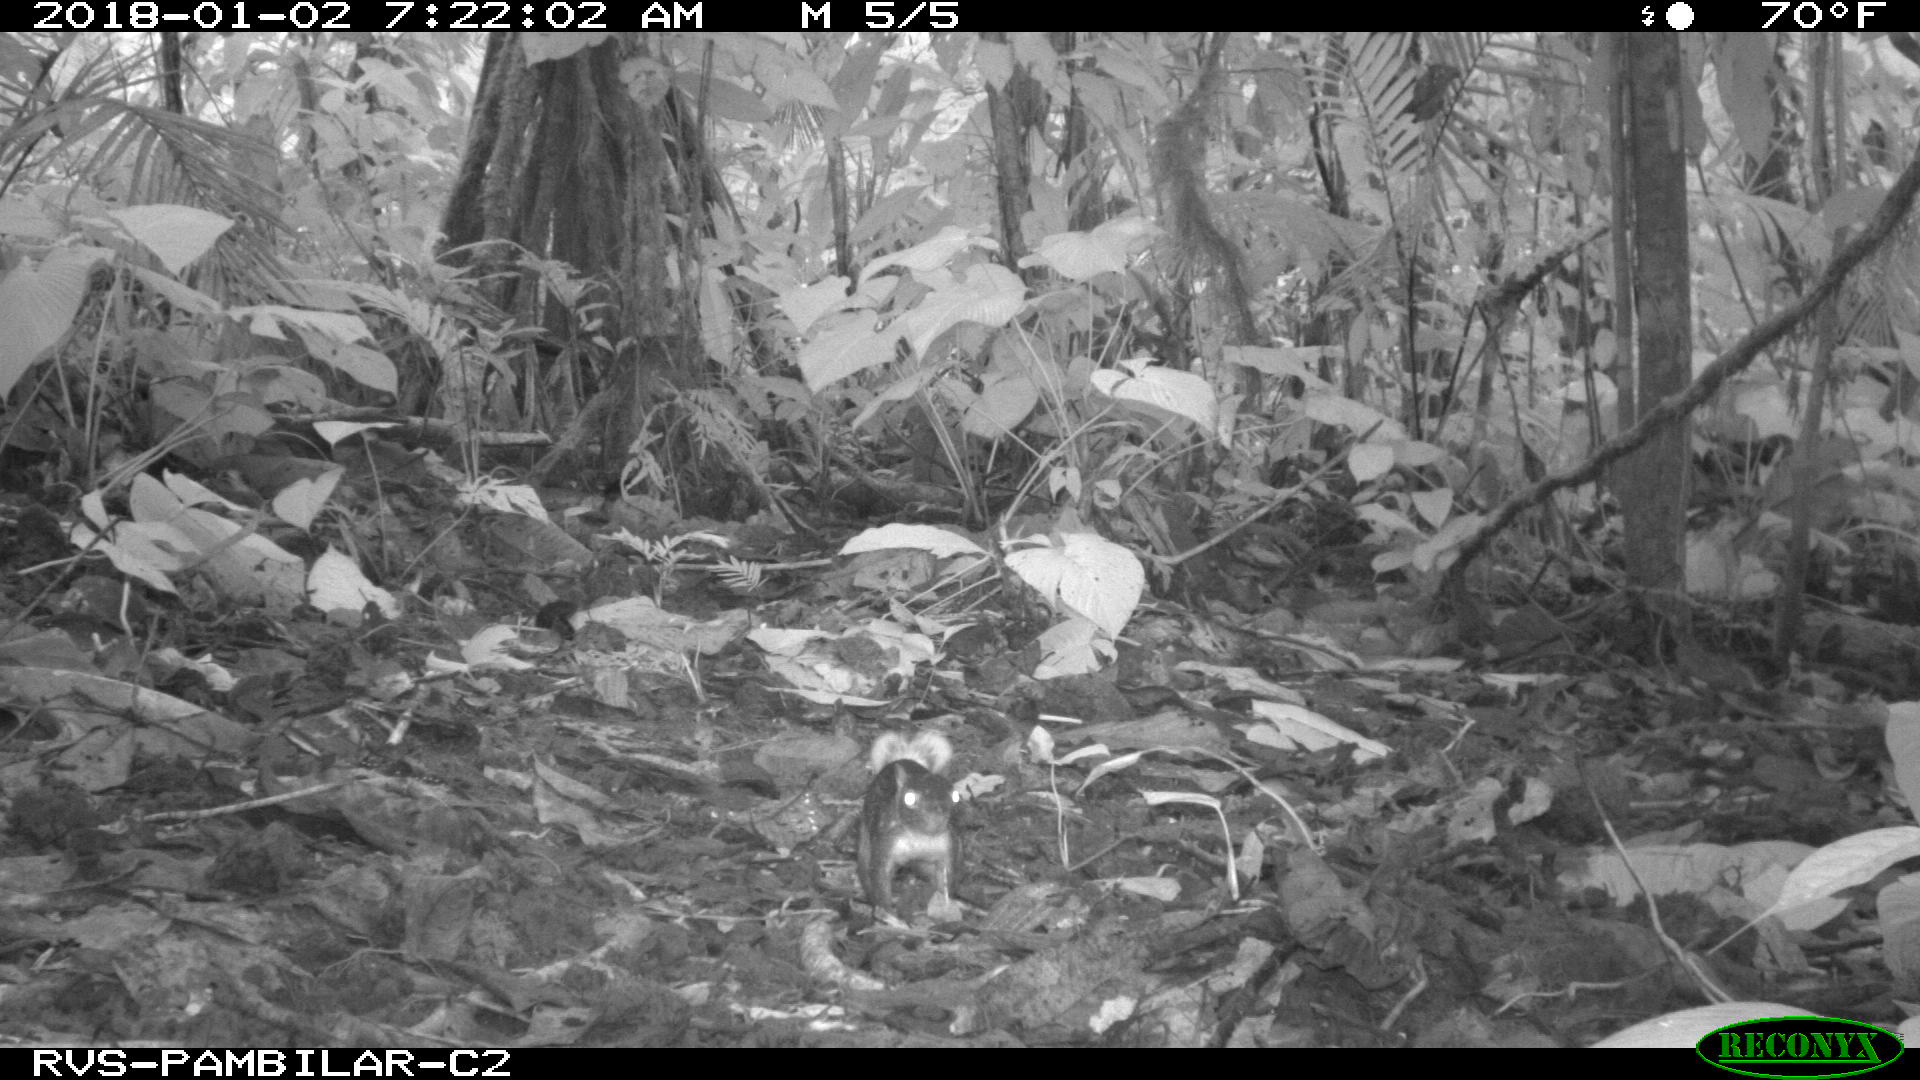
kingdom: Animalia
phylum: Chordata
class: Mammalia
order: Rodentia
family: Sciuridae
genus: Sciurus
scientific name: Sciurus granatensis
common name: Red-tailed squirrel
